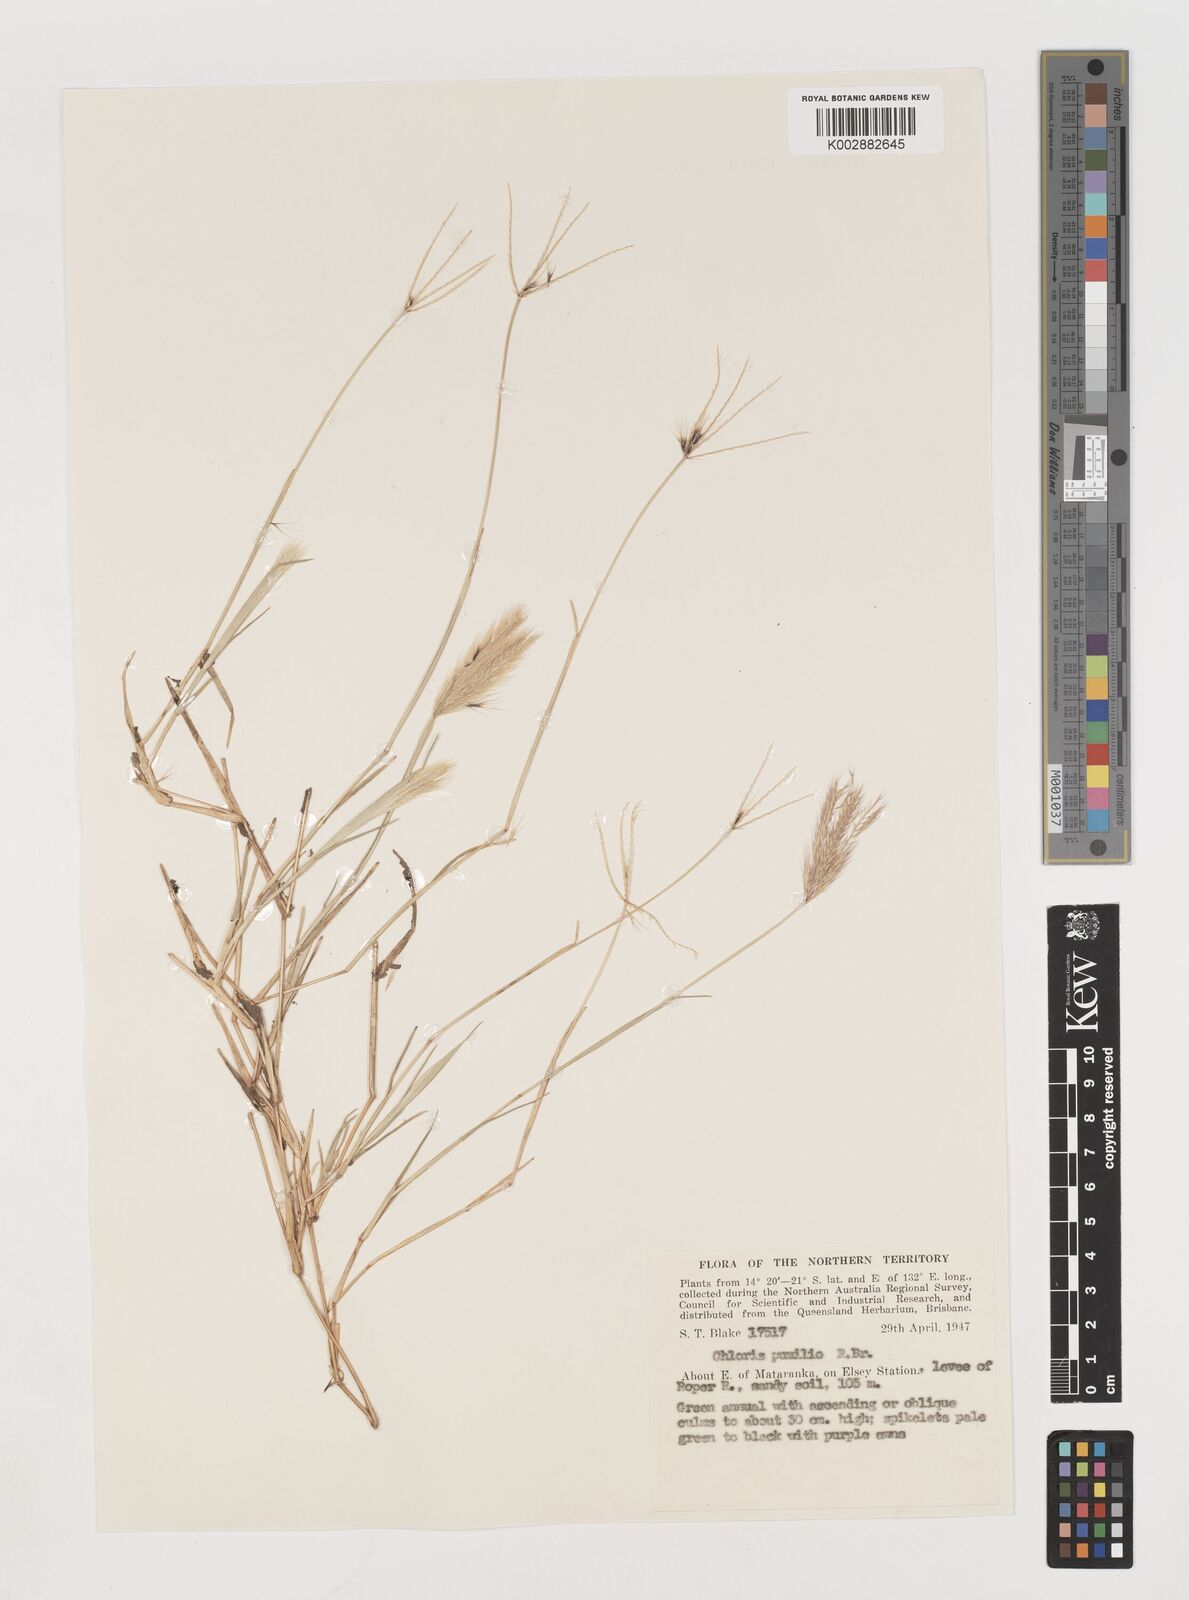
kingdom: Plantae
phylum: Tracheophyta
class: Liliopsida
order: Poales
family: Poaceae
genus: Chloris
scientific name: Chloris lobata
